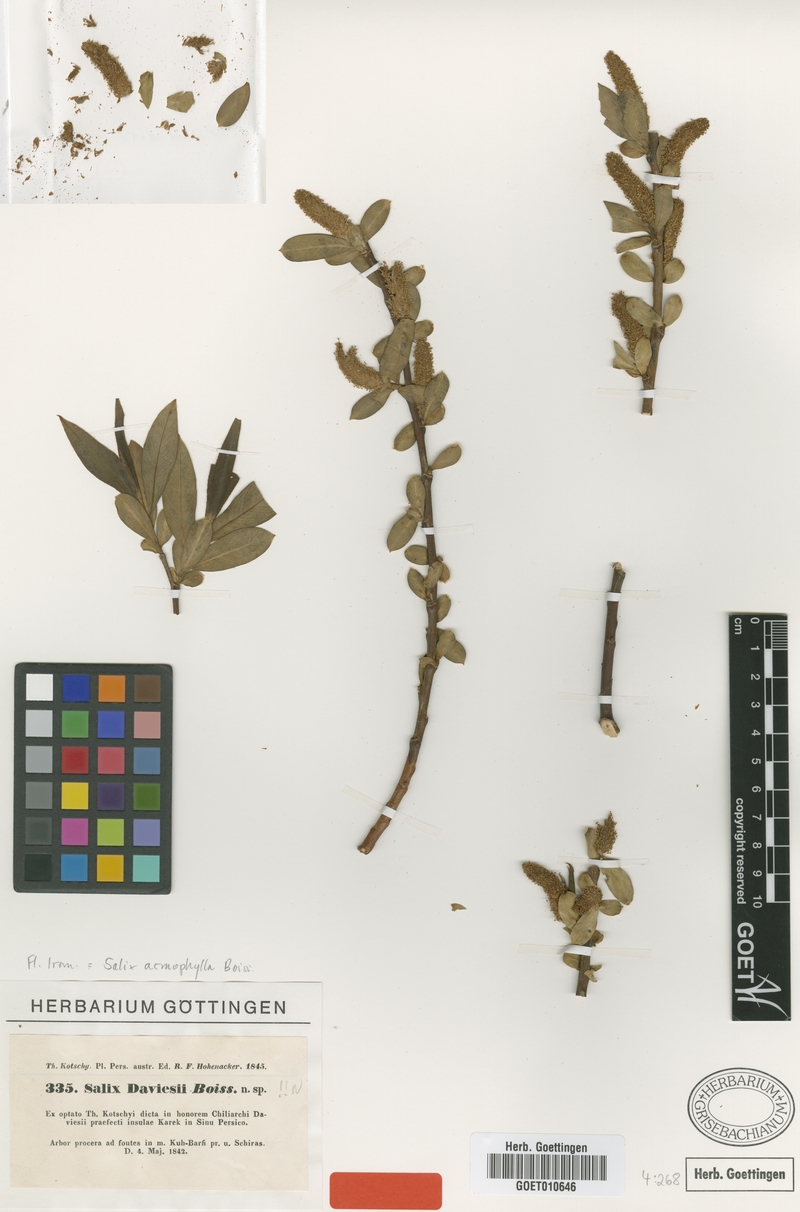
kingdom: Plantae
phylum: Tracheophyta
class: Magnoliopsida
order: Malpighiales
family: Salicaceae
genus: Salix
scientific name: Salix acmophylla
